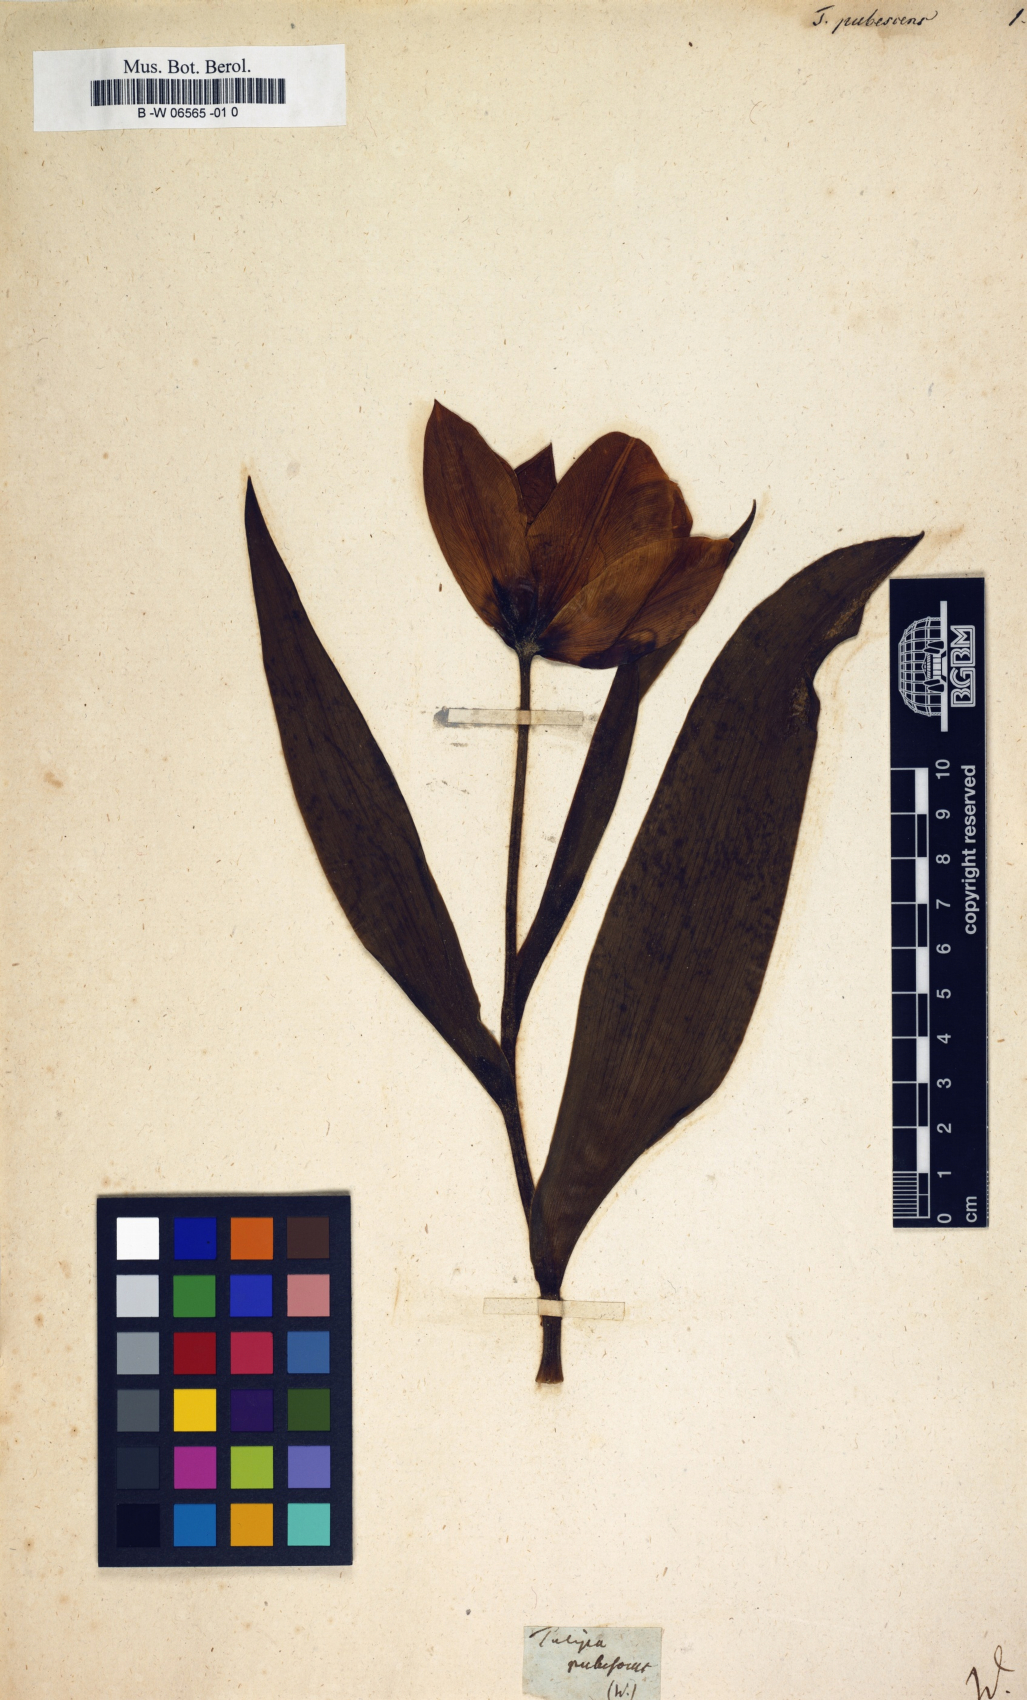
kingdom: Plantae
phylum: Tracheophyta
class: Liliopsida
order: Liliales
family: Liliaceae
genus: Tulipa
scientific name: Tulipa gesneriana
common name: Garden tulip
